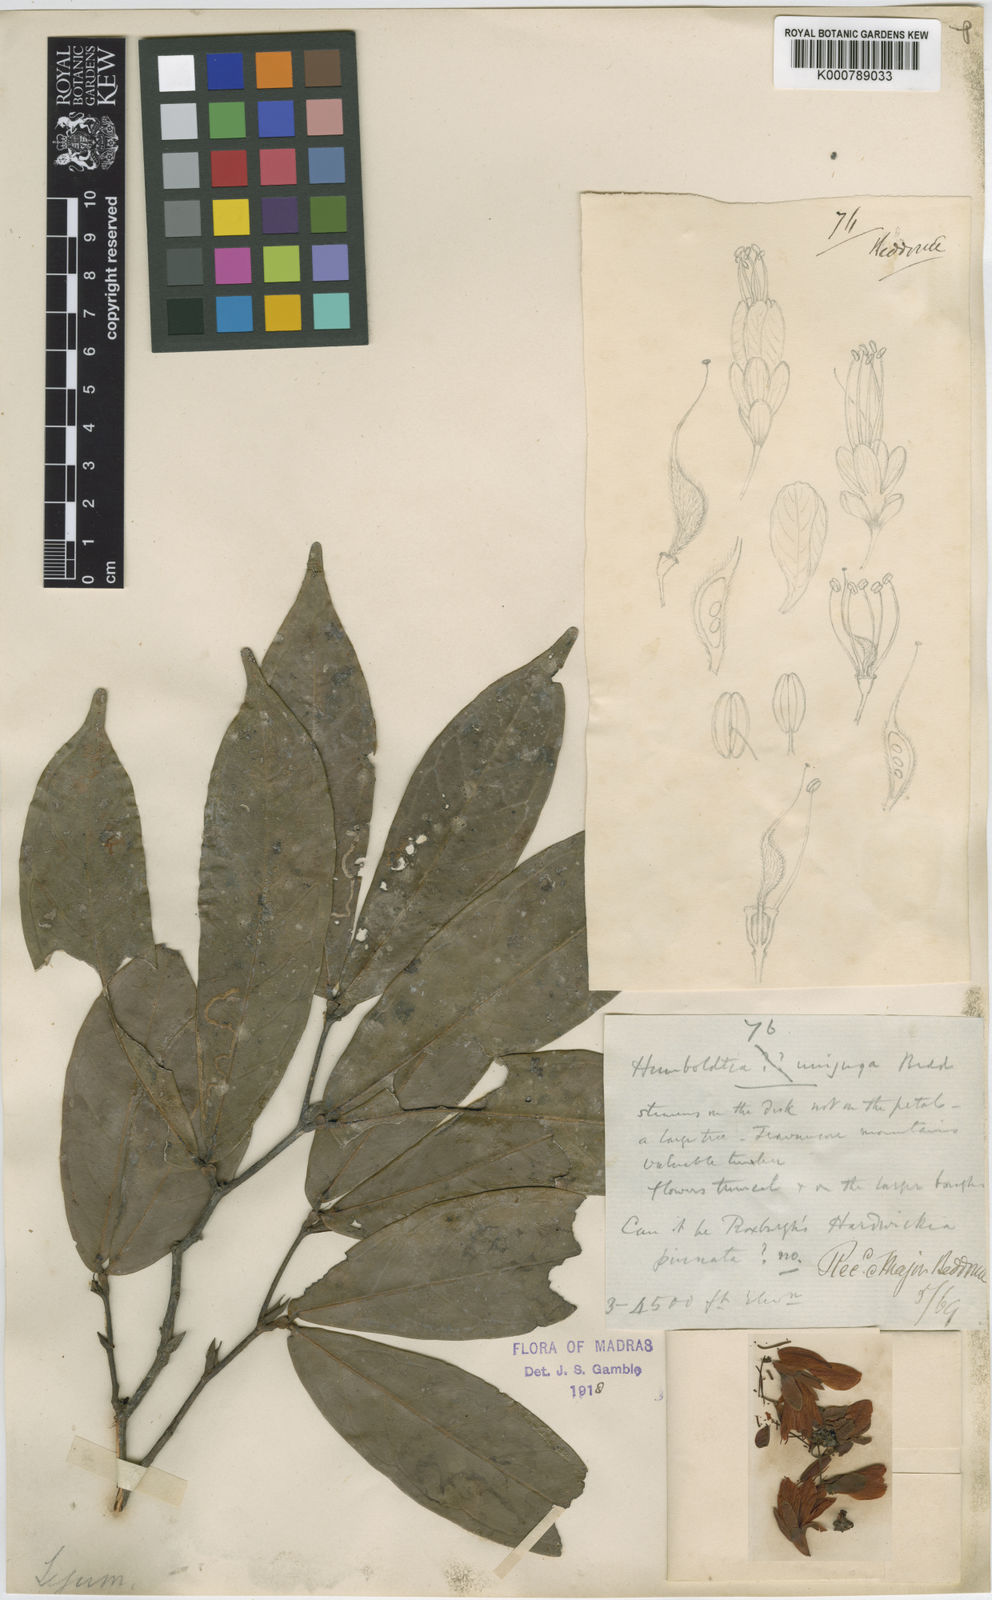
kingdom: Plantae
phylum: Tracheophyta
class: Magnoliopsida
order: Fabales
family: Fabaceae
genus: Humboldtia
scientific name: Humboldtia unijuga
